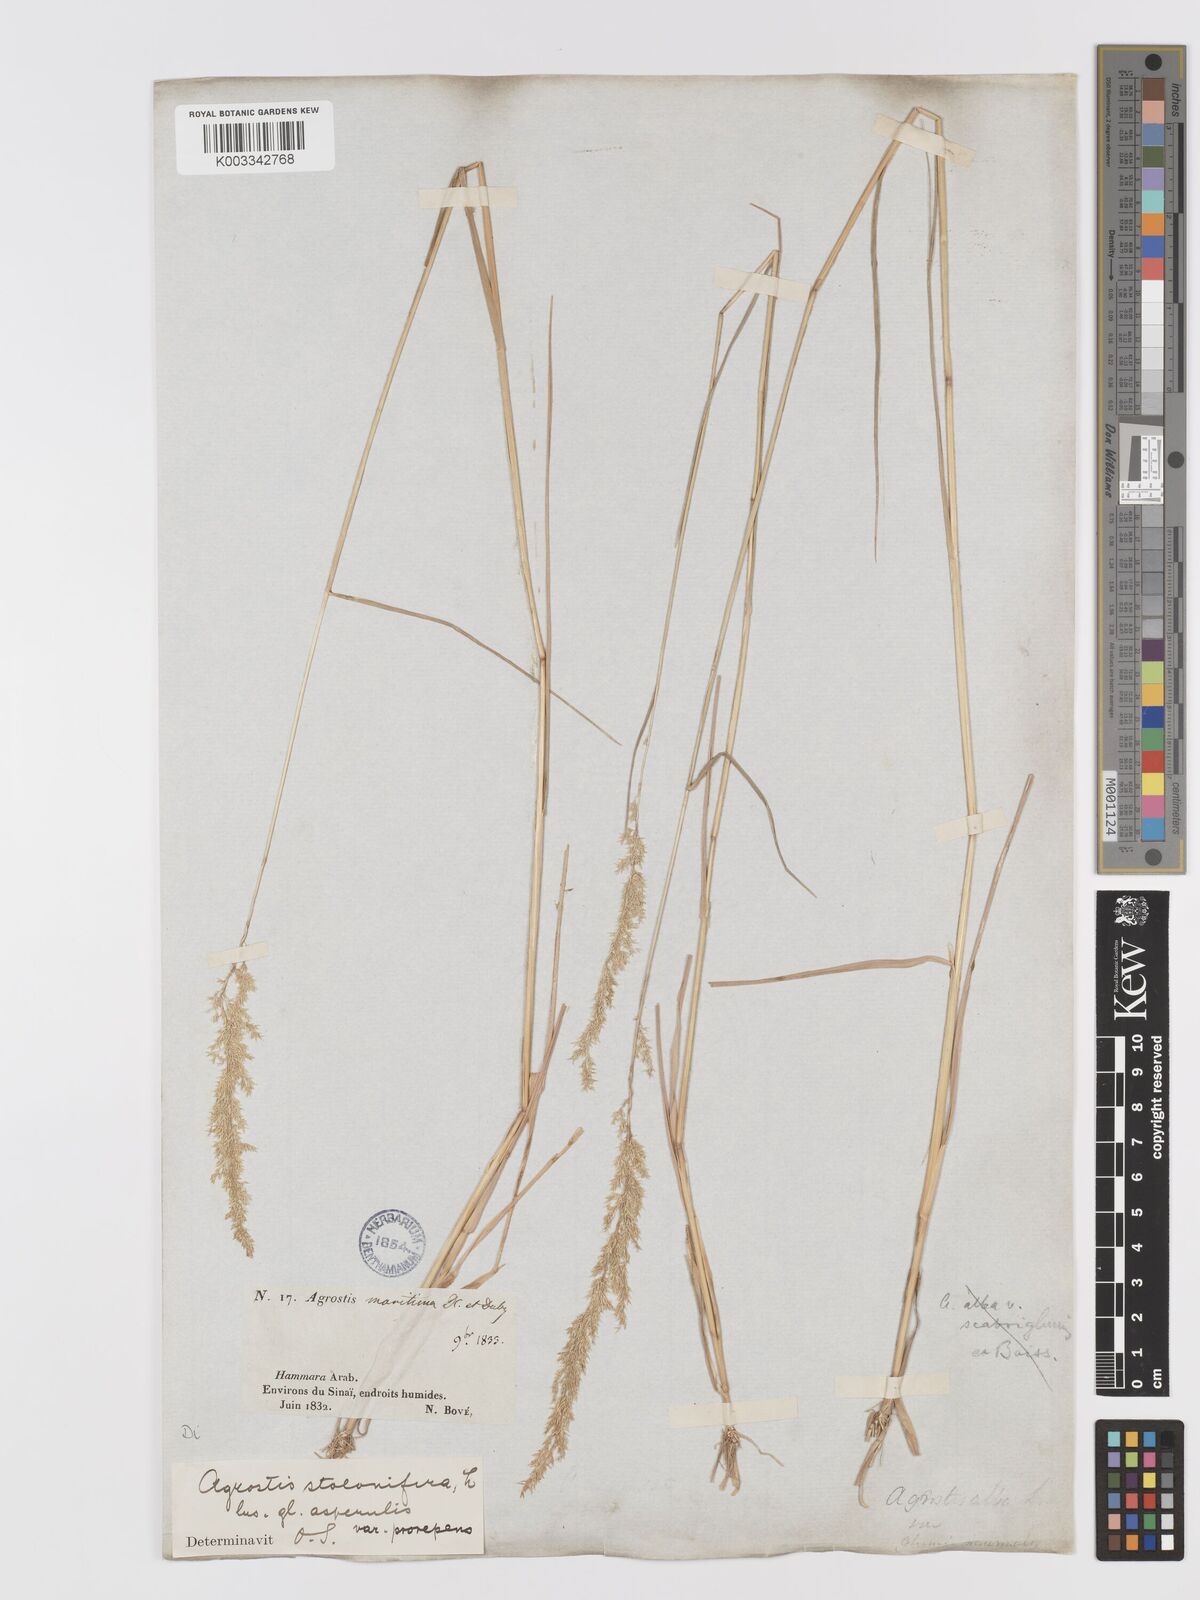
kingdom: Plantae
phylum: Tracheophyta
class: Liliopsida
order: Poales
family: Poaceae
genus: Agrostis
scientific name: Agrostis stolonifera
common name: Creeping bentgrass
